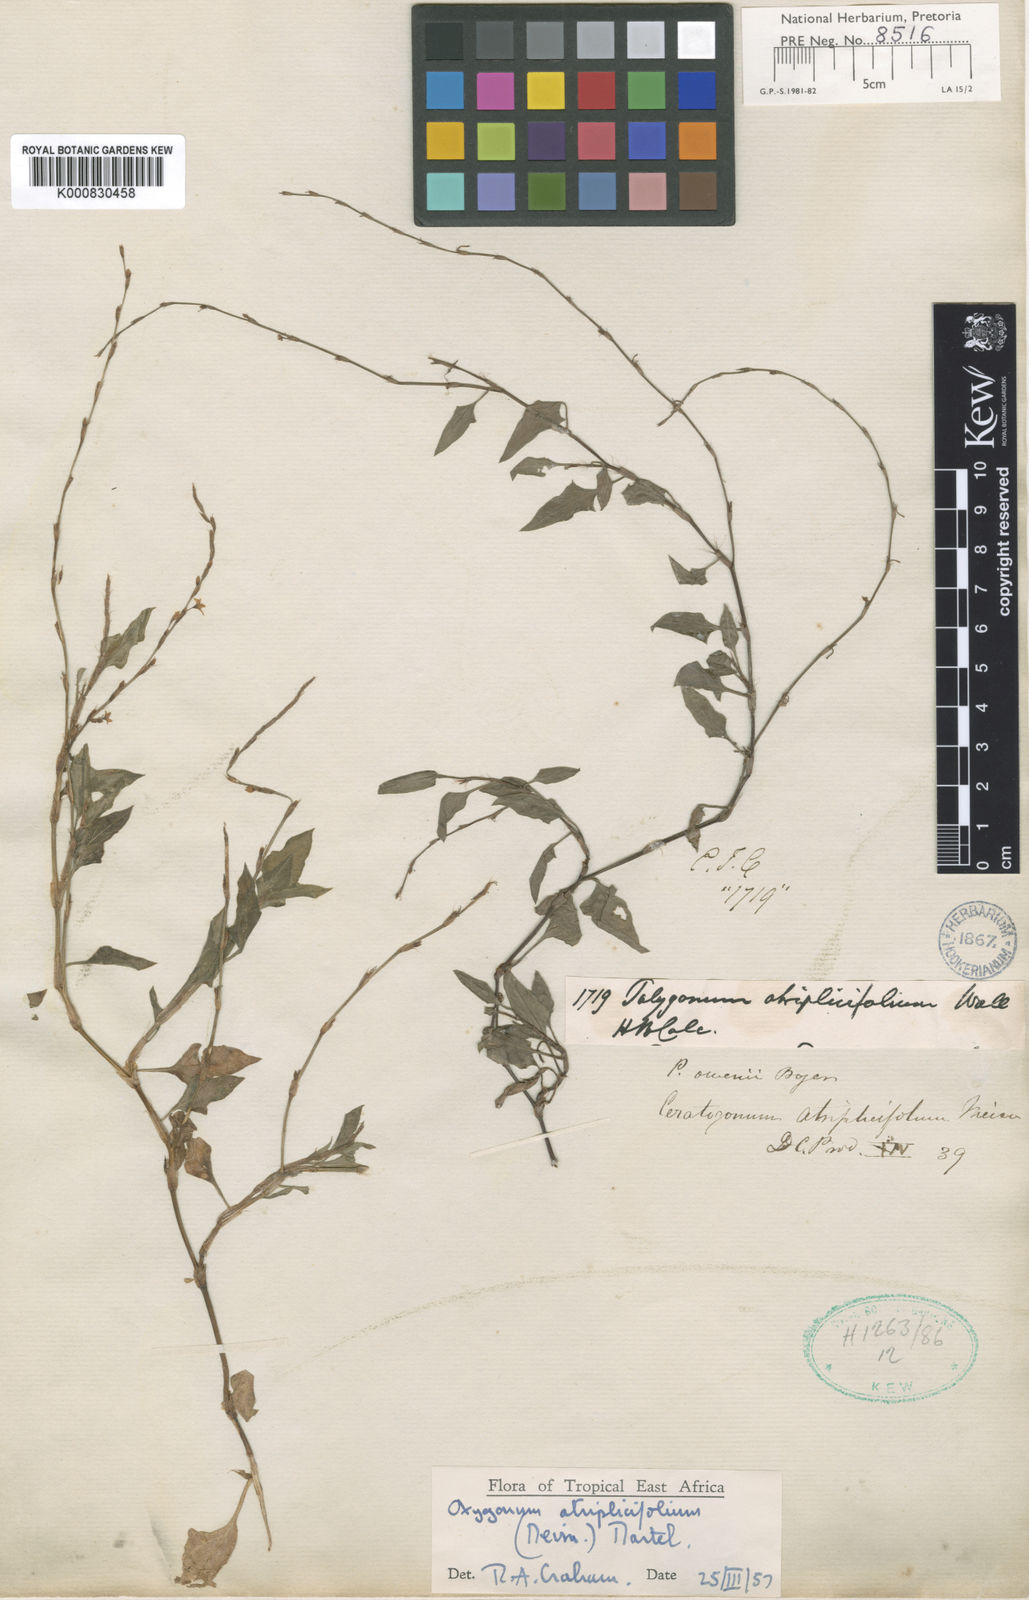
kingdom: Plantae
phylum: Tracheophyta
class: Magnoliopsida
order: Caryophyllales
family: Polygonaceae
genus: Oxygonum
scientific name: Oxygonum atriplicifolium
